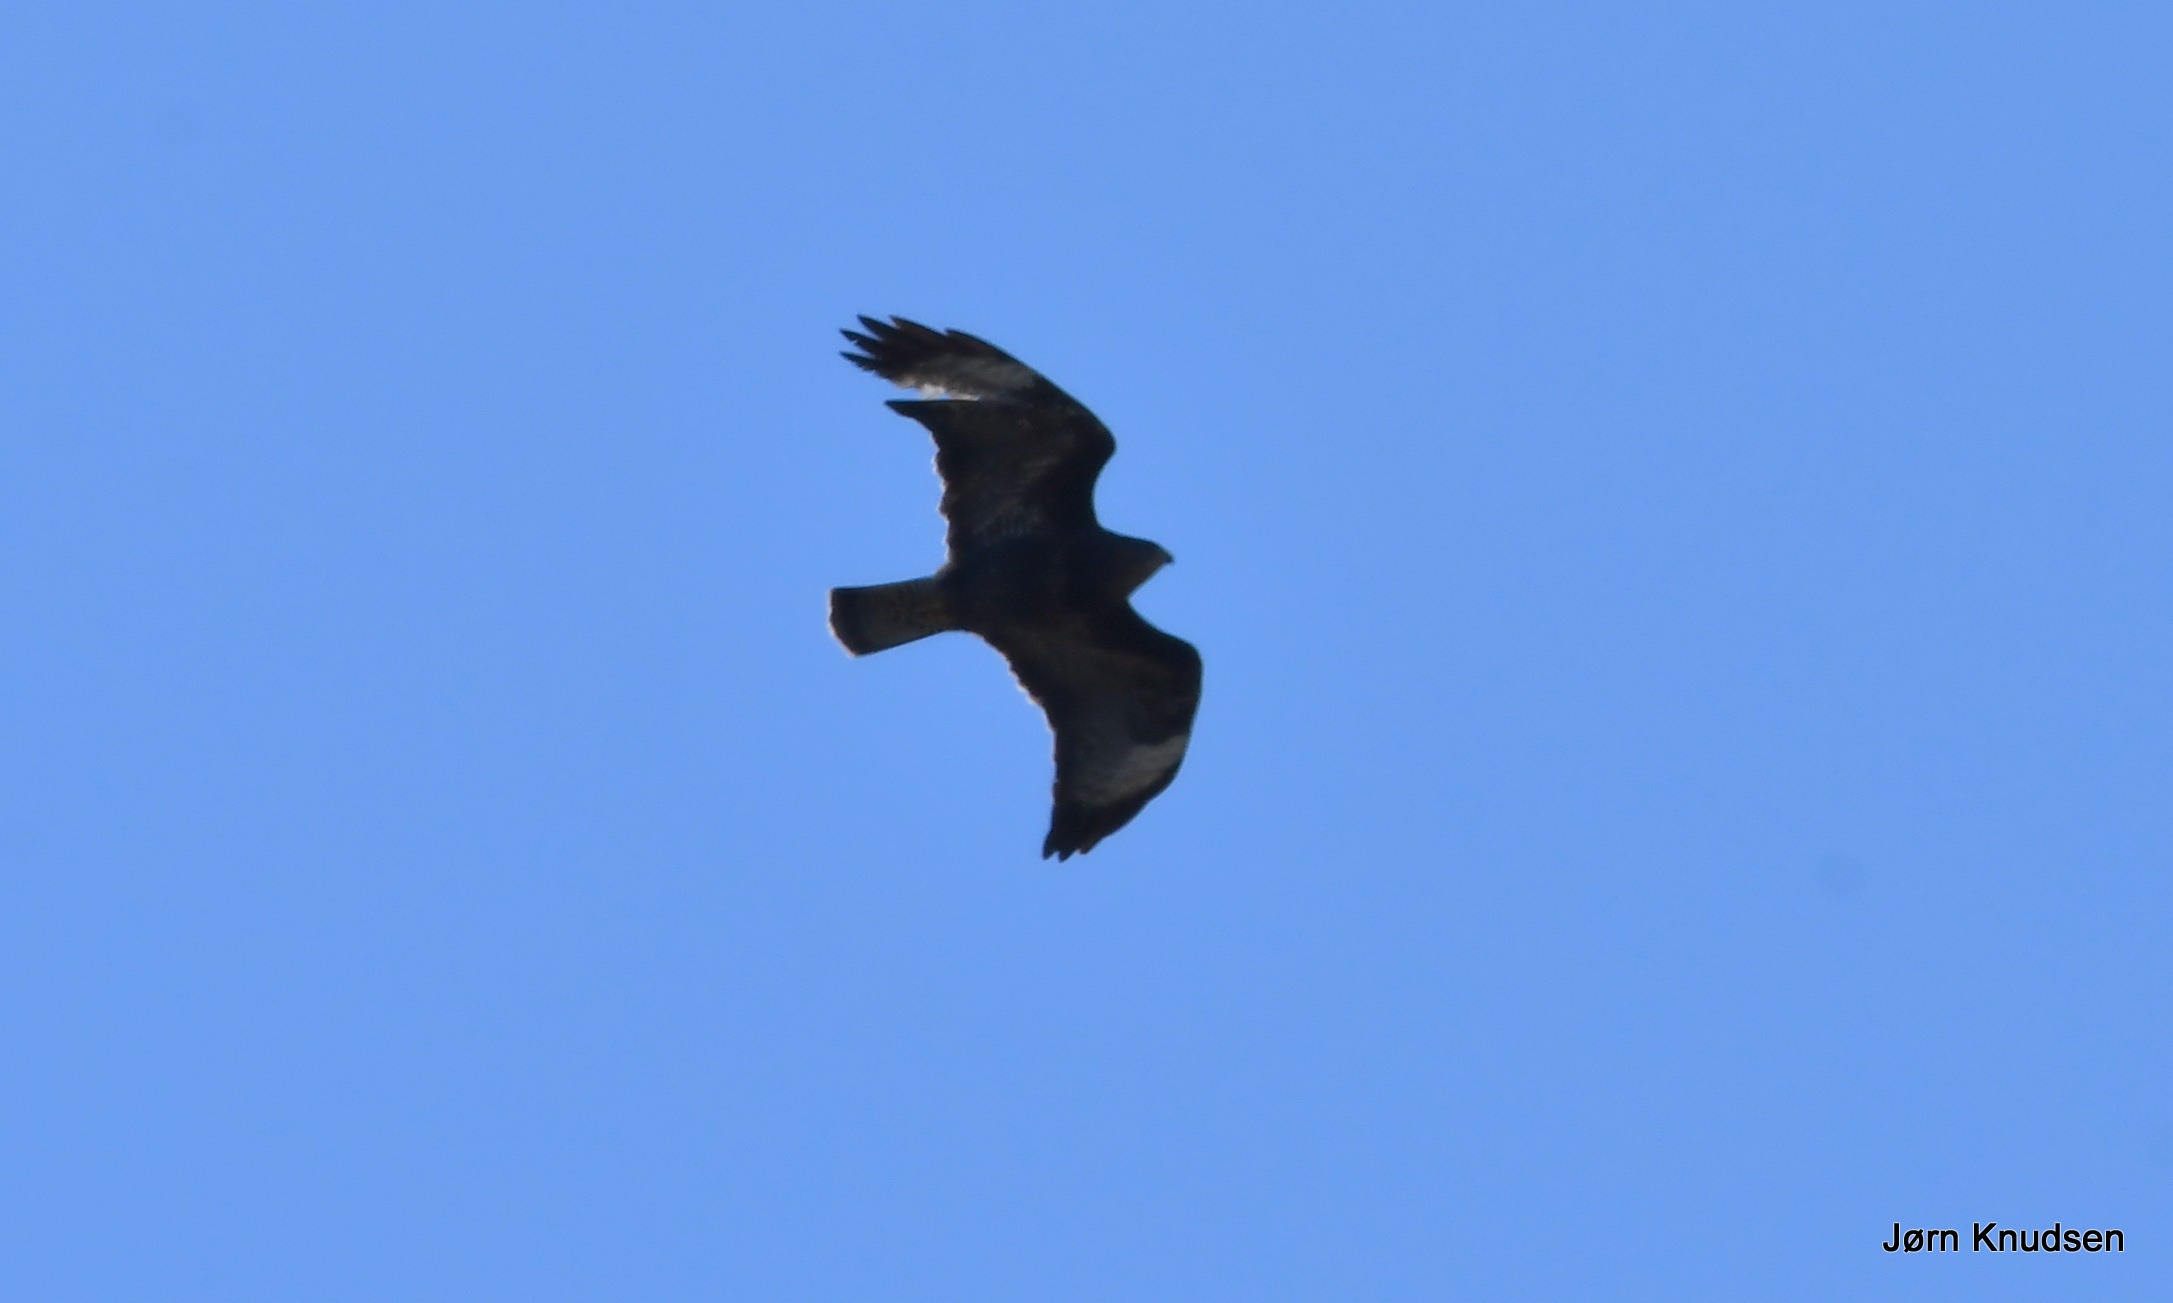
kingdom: Animalia
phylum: Chordata
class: Aves
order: Accipitriformes
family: Accipitridae
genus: Buteo
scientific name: Buteo buteo
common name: Musvåge
